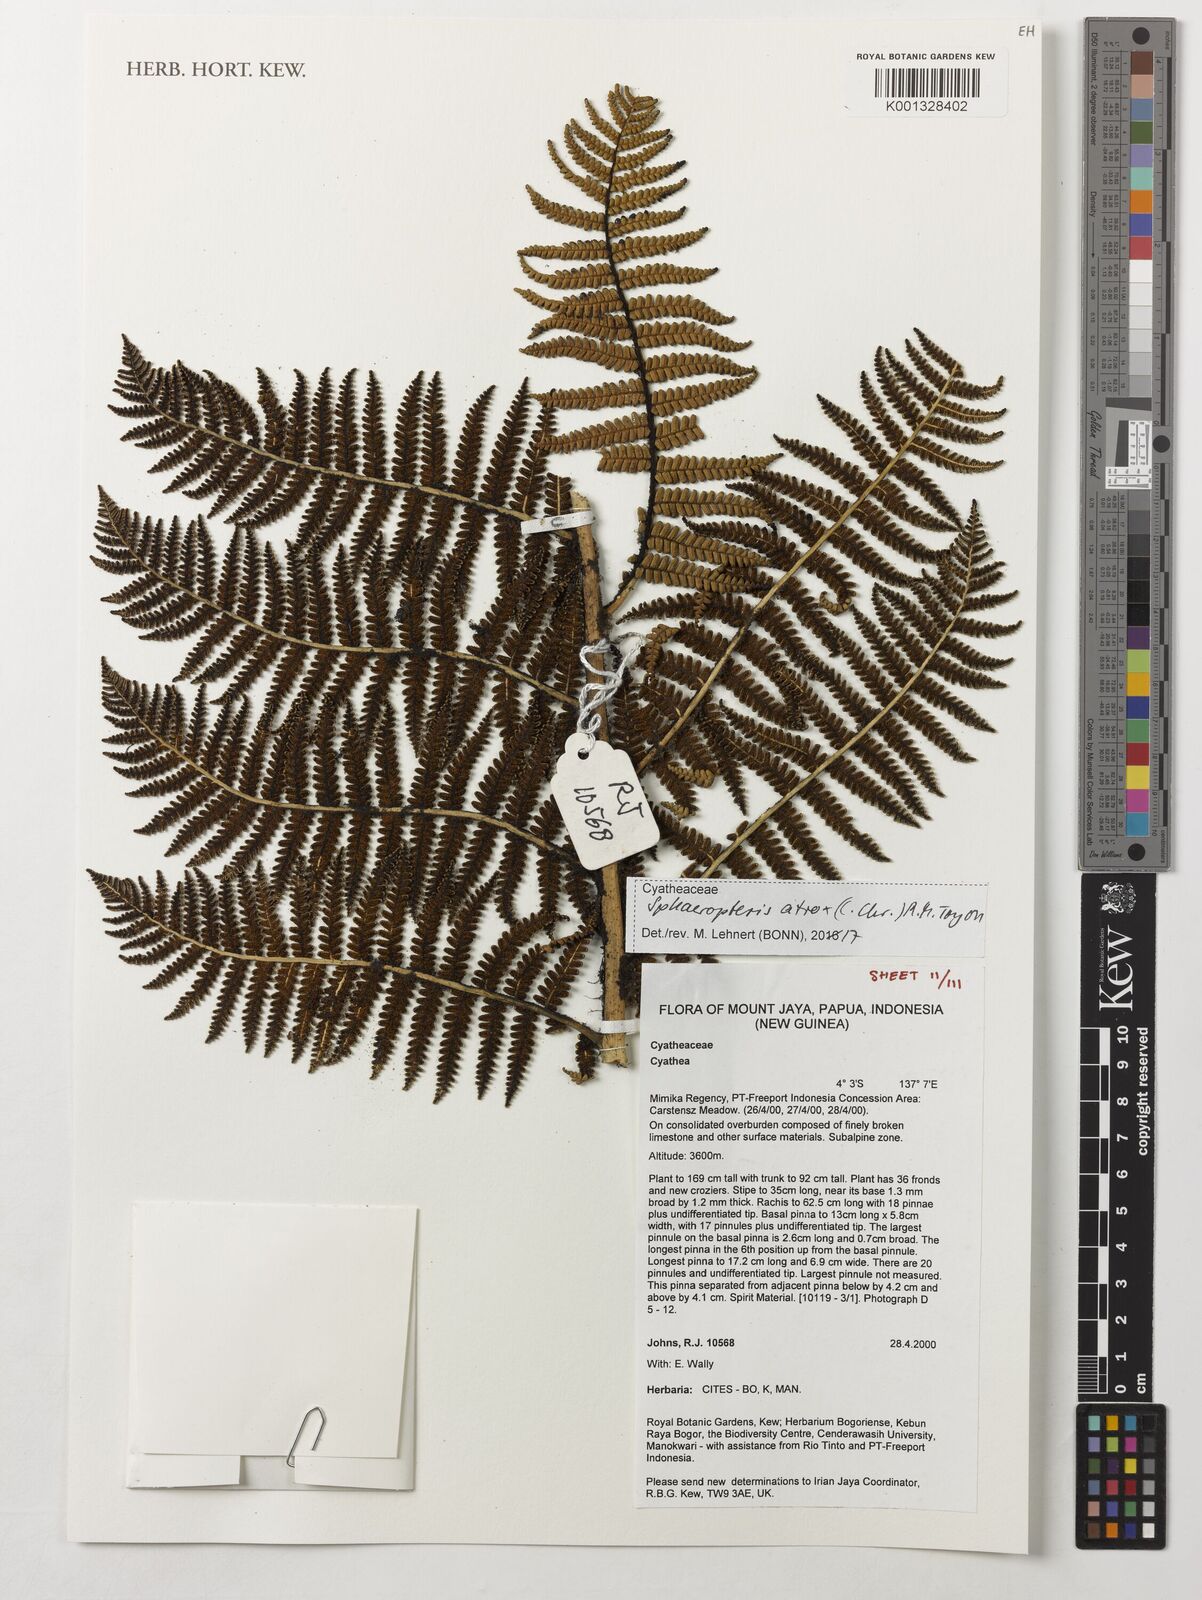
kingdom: Plantae
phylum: Tracheophyta
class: Polypodiopsida
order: Cyatheales
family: Cyatheaceae
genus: Sphaeropteris
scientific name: Sphaeropteris atrox
